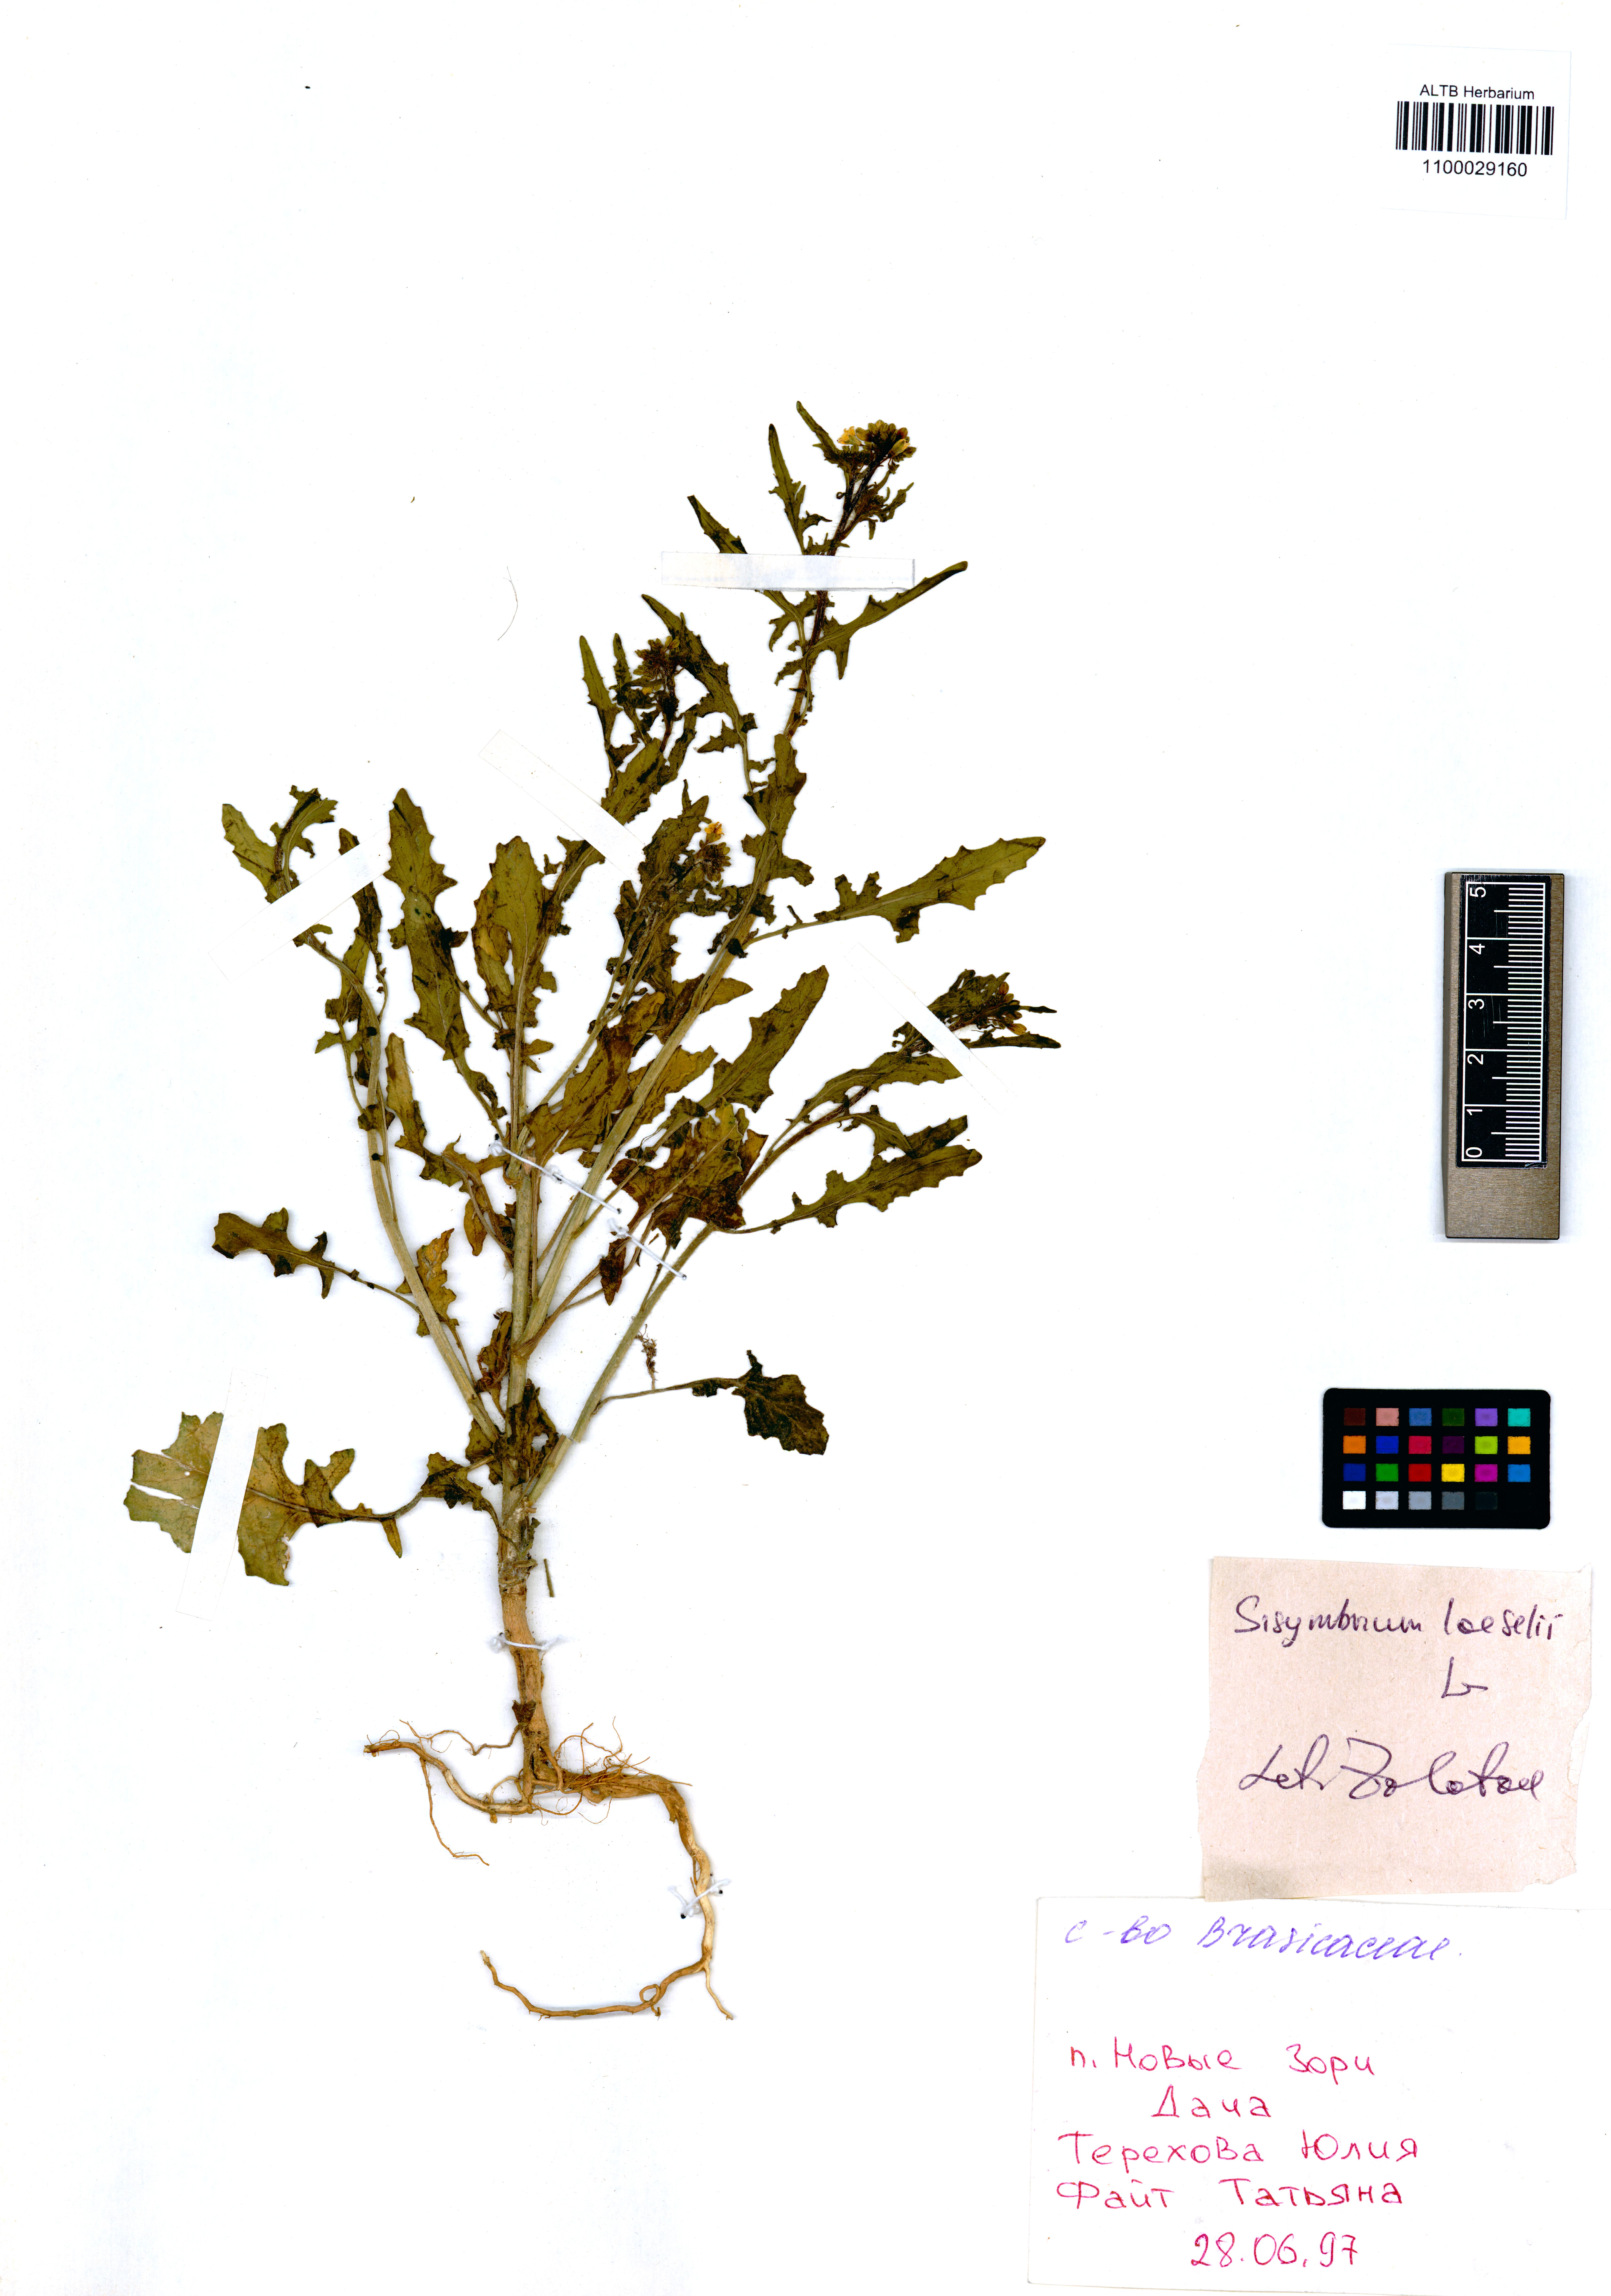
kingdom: Plantae
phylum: Tracheophyta
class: Magnoliopsida
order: Brassicales
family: Brassicaceae
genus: Sisymbrium
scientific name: Sisymbrium loeselii
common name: False london-rocket
